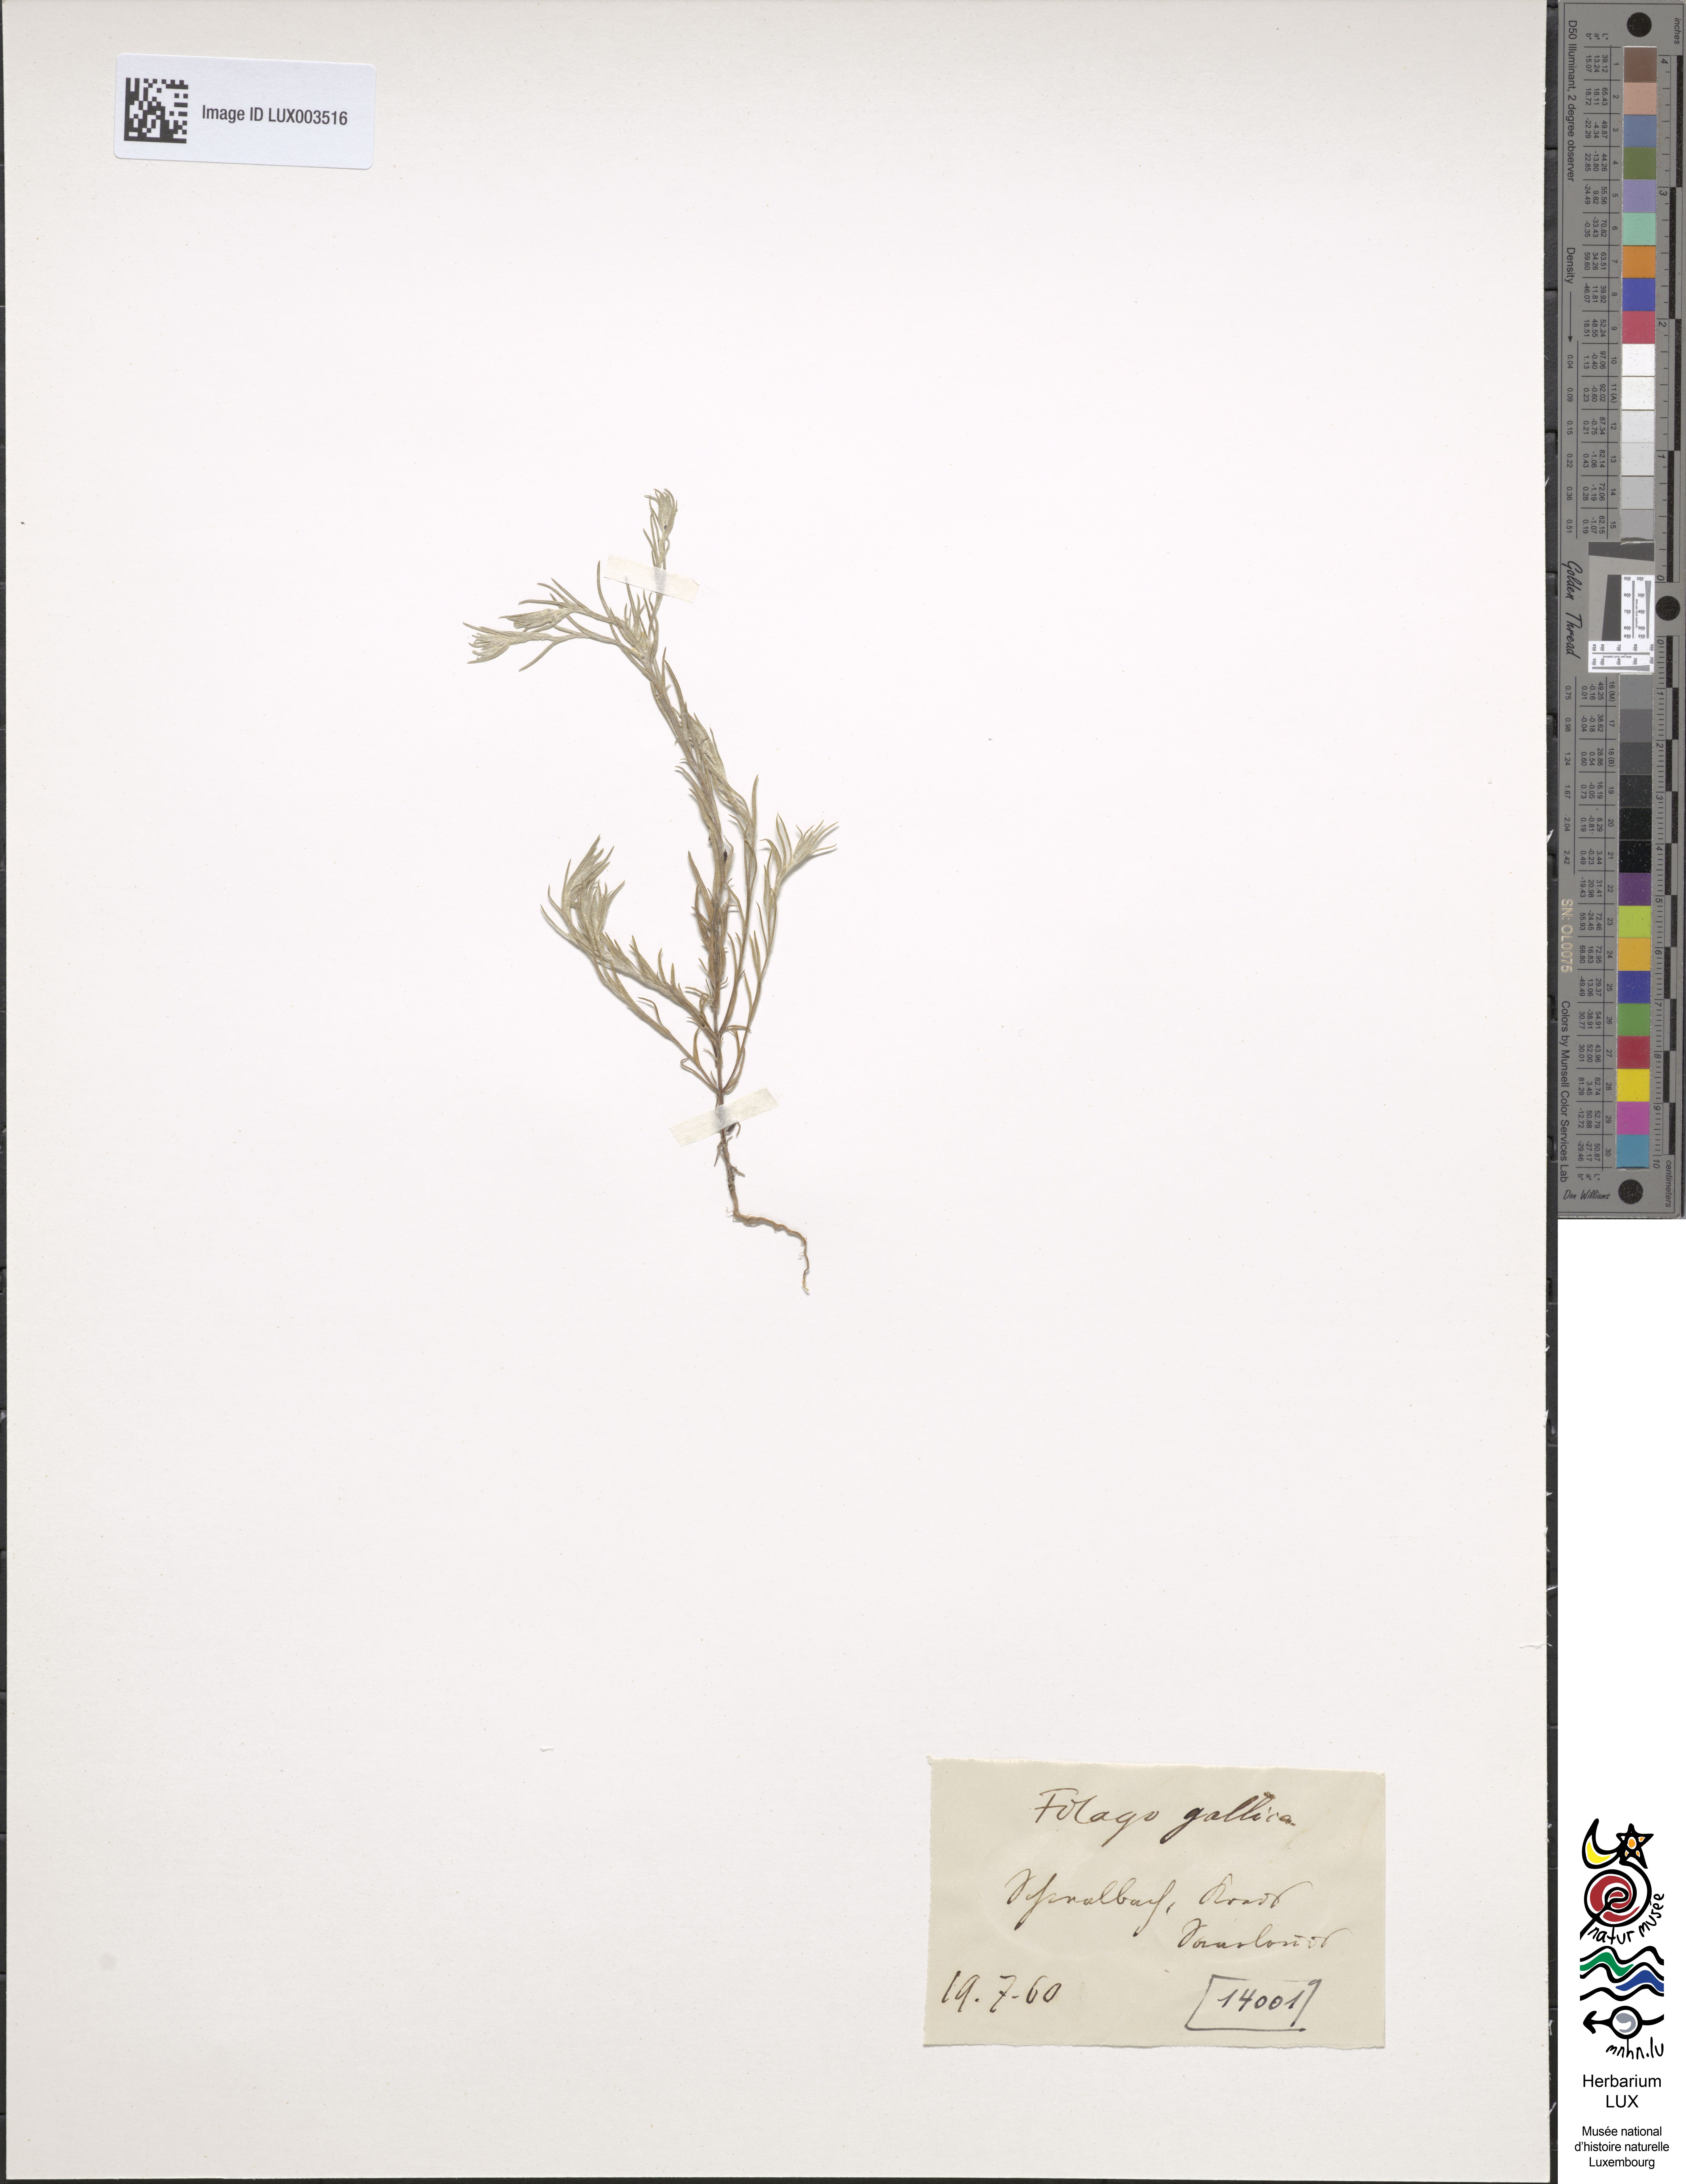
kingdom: Plantae
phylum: Tracheophyta
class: Magnoliopsida
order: Asterales
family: Asteraceae
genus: Logfia
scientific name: Logfia gallica
